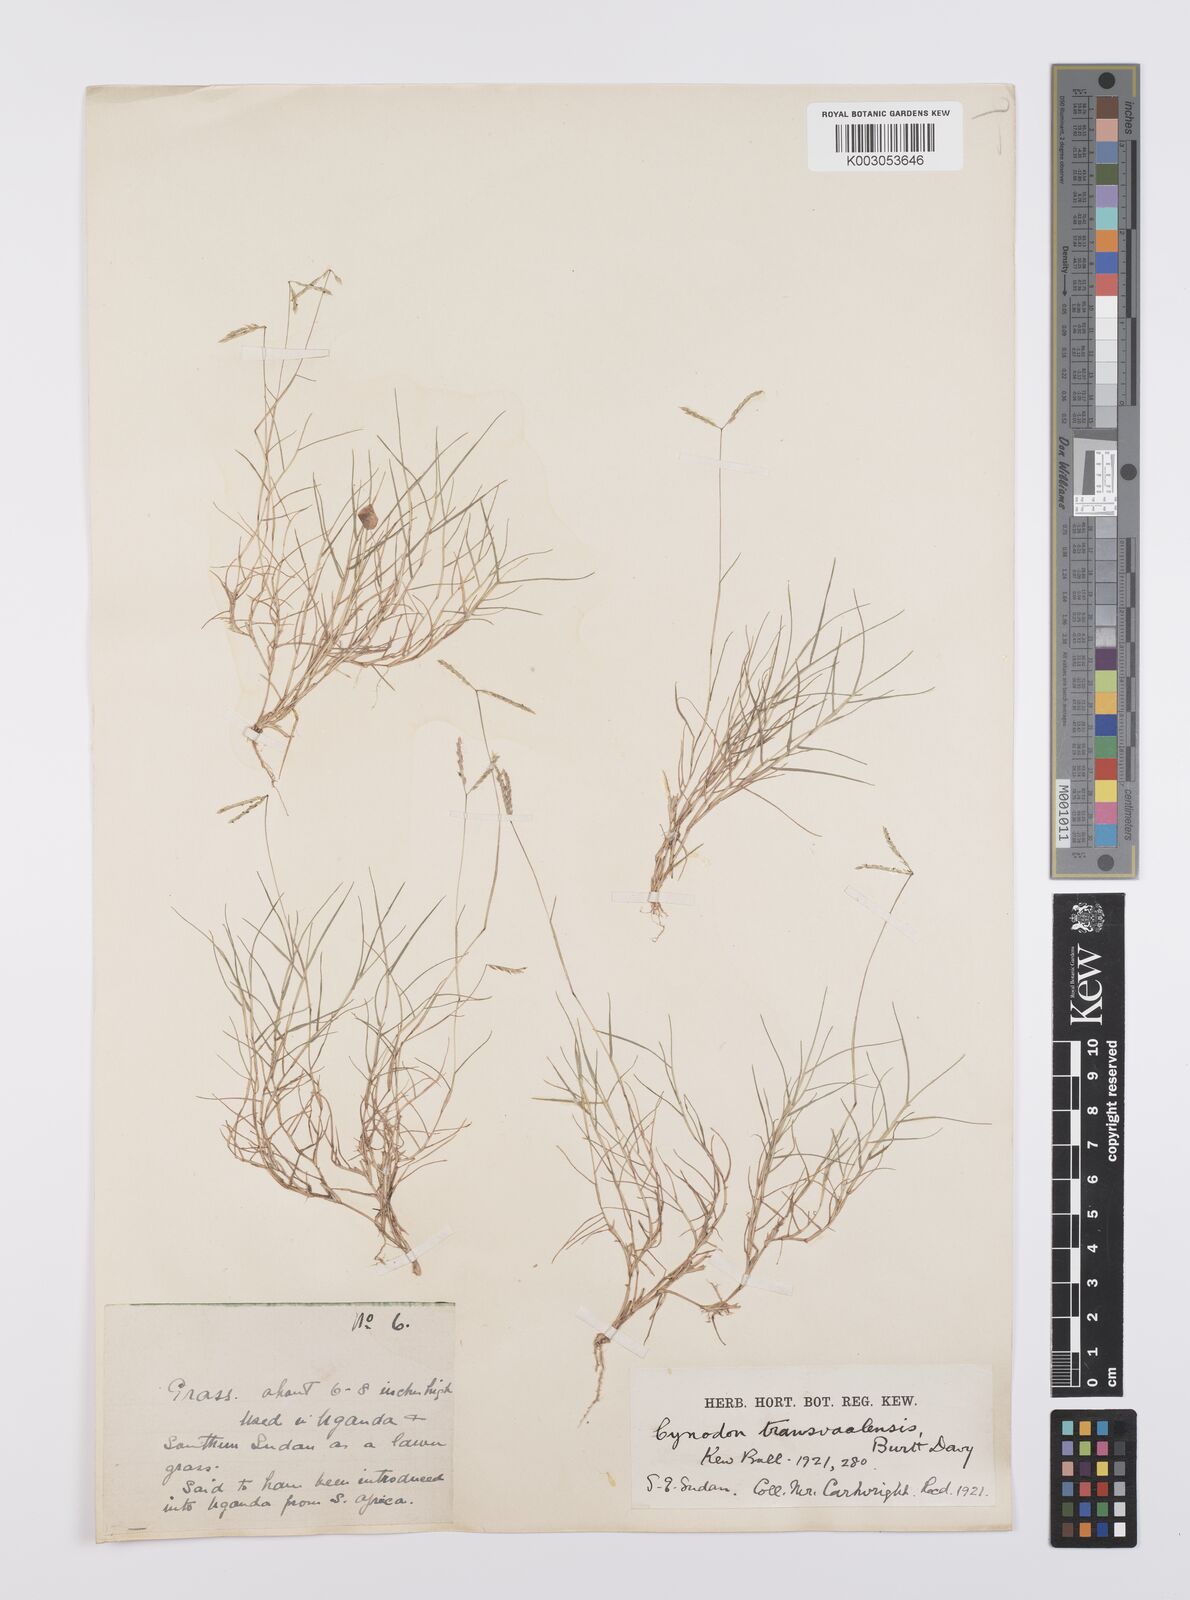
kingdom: Plantae
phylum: Tracheophyta
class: Liliopsida
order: Poales
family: Poaceae
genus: Cynodon
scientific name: Cynodon transvaalensis
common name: African bermuda grass
